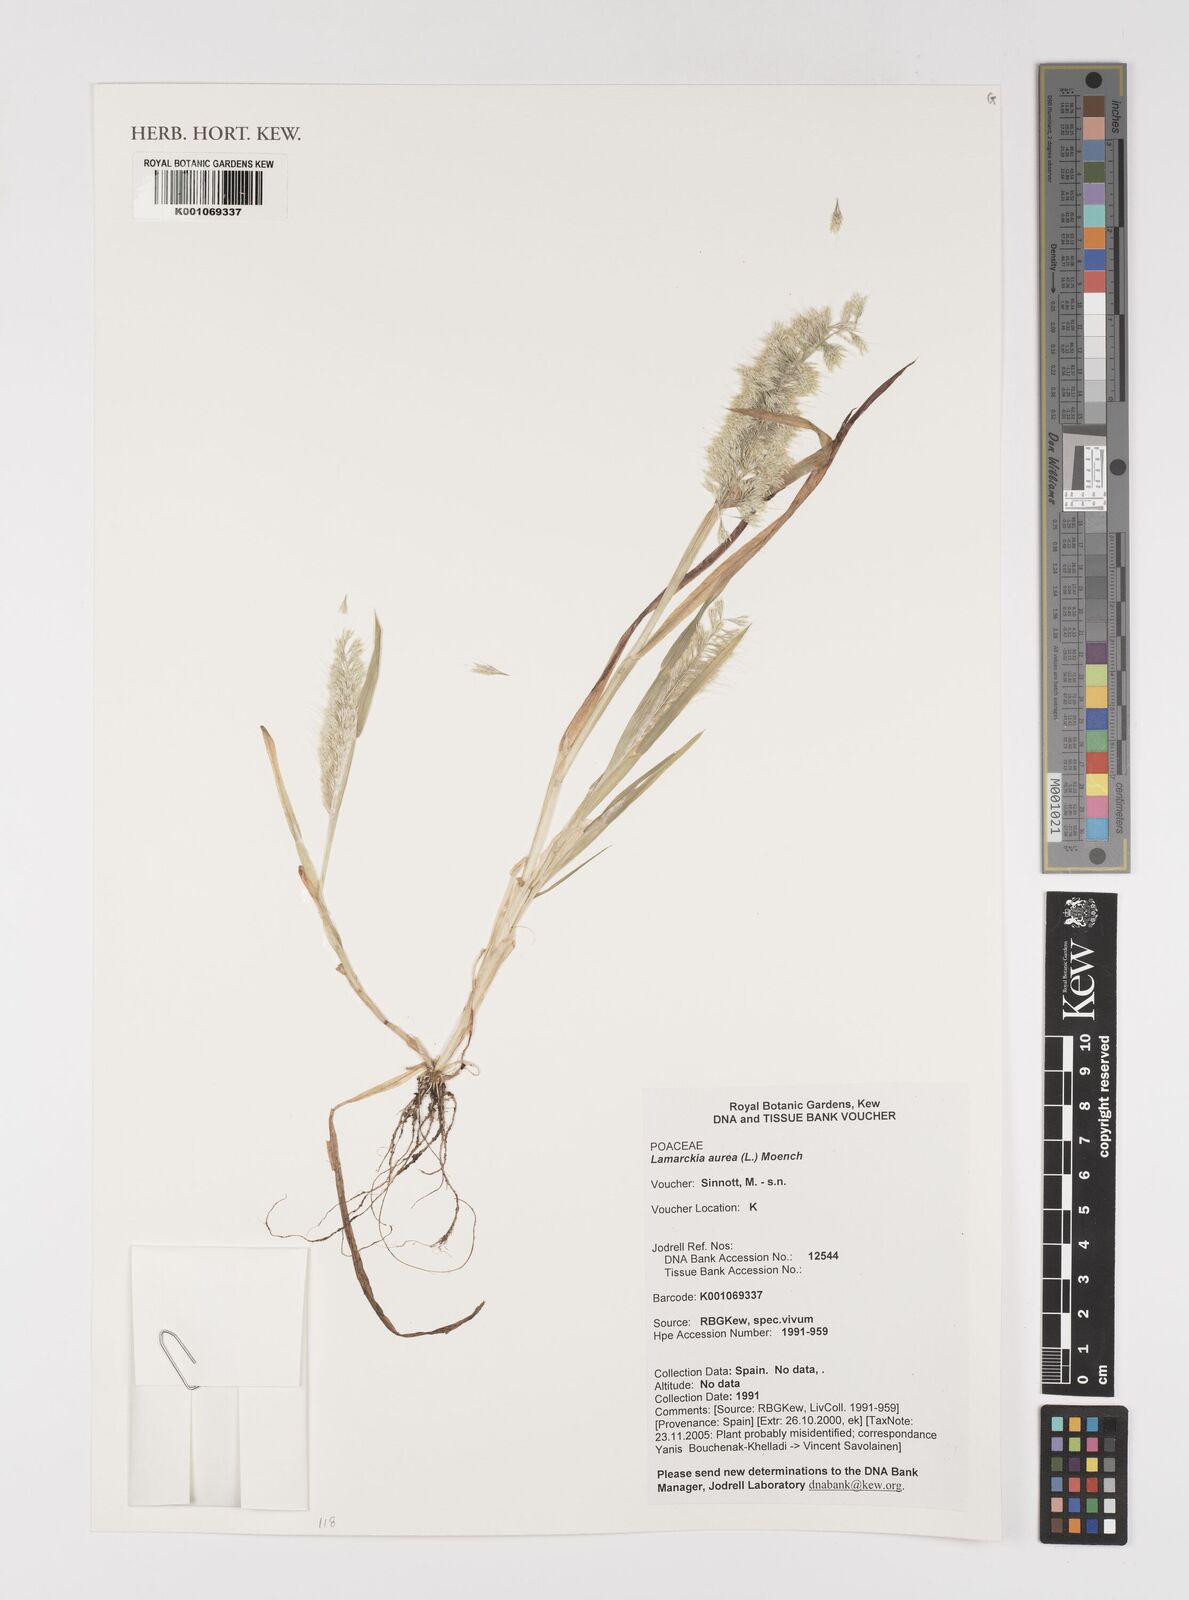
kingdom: Plantae
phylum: Tracheophyta
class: Liliopsida
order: Poales
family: Poaceae
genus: Lamarckia
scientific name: Lamarckia aurea
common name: Golden dog's-tail
